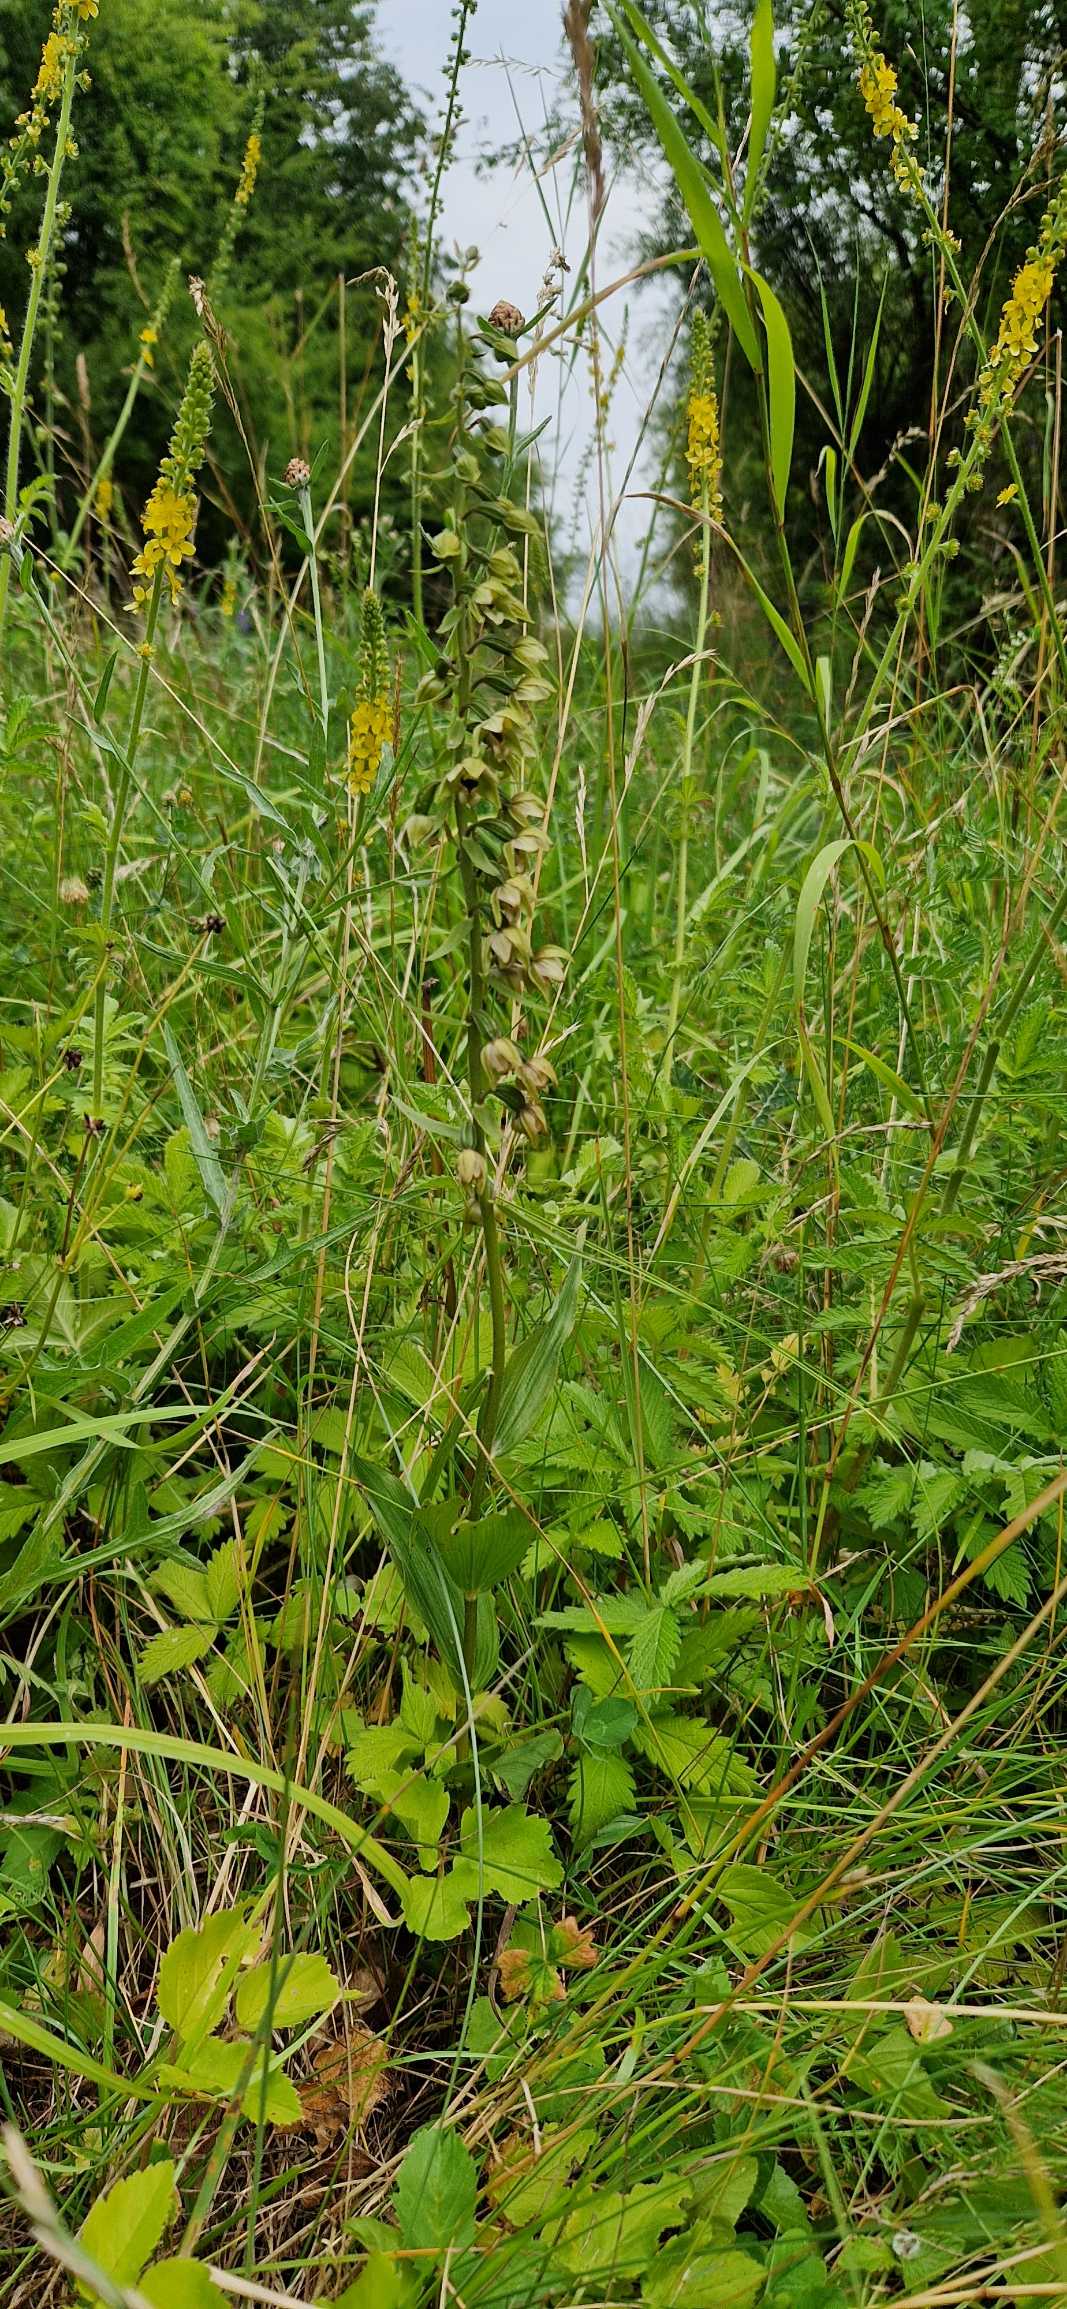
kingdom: Plantae
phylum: Tracheophyta
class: Liliopsida
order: Asparagales
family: Orchidaceae
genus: Epipactis
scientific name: Epipactis helleborine
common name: Skov-hullæbe
